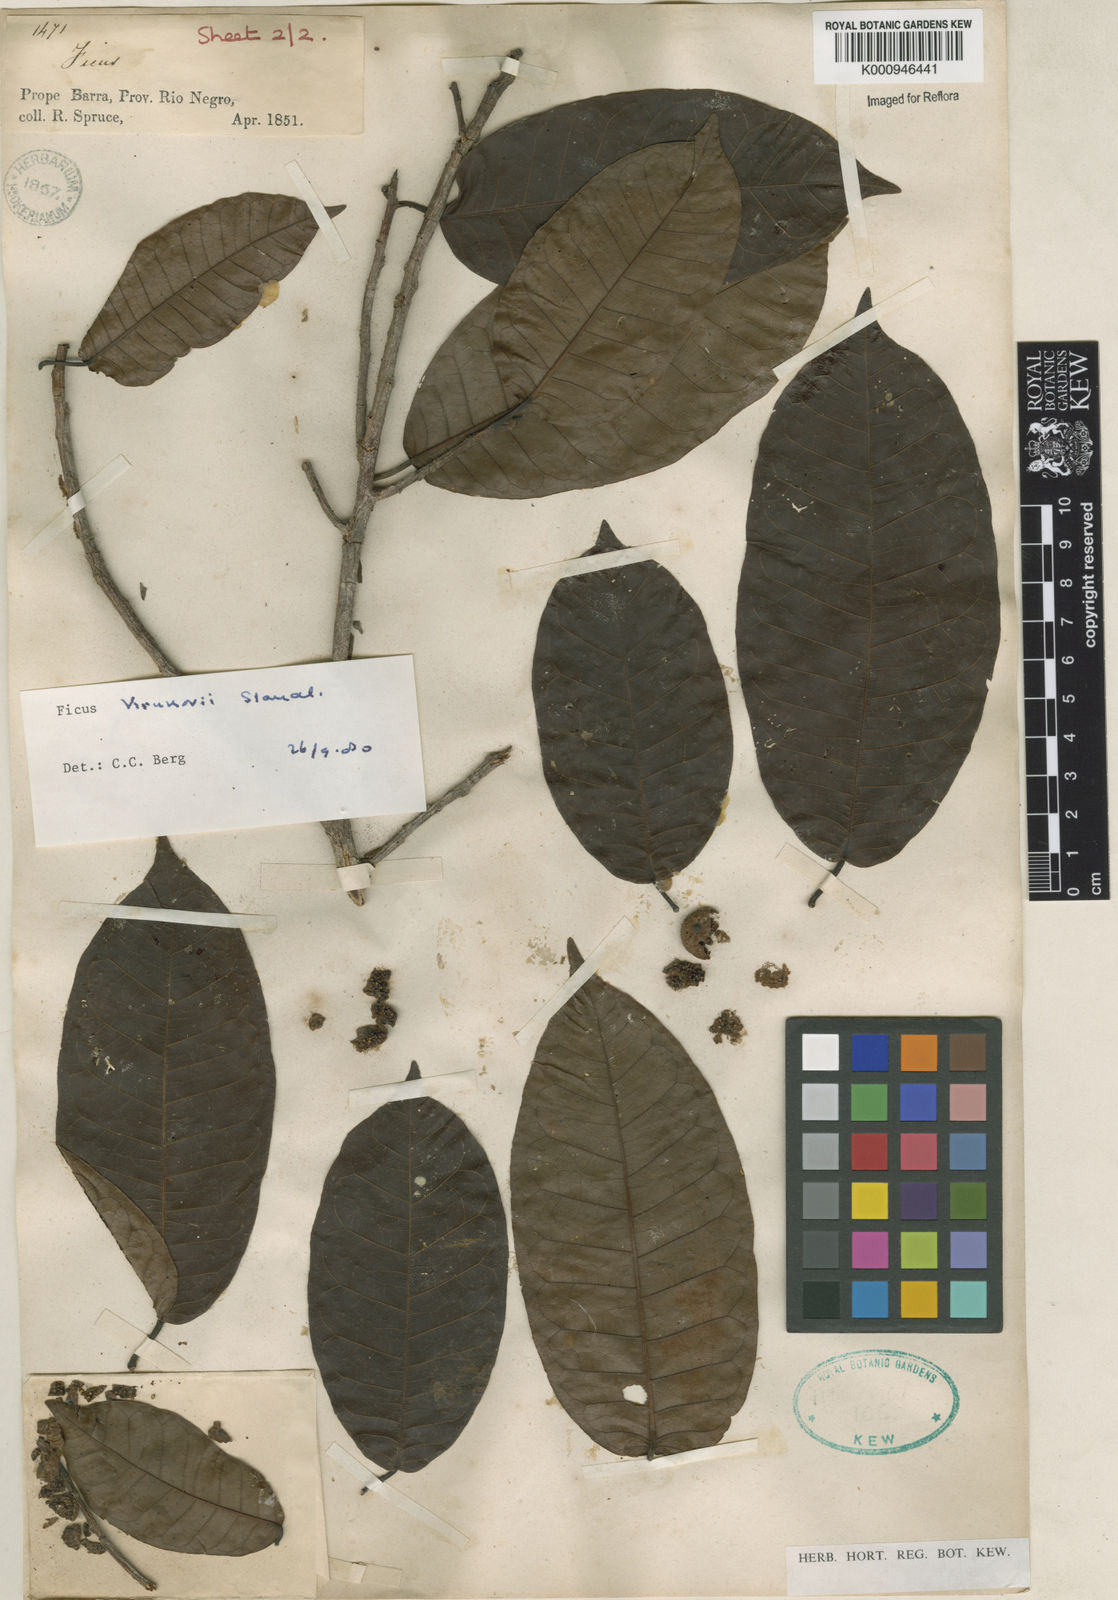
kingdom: Plantae
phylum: Tracheophyta
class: Magnoliopsida
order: Rosales
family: Moraceae
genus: Ficus
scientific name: Ficus krukovii
